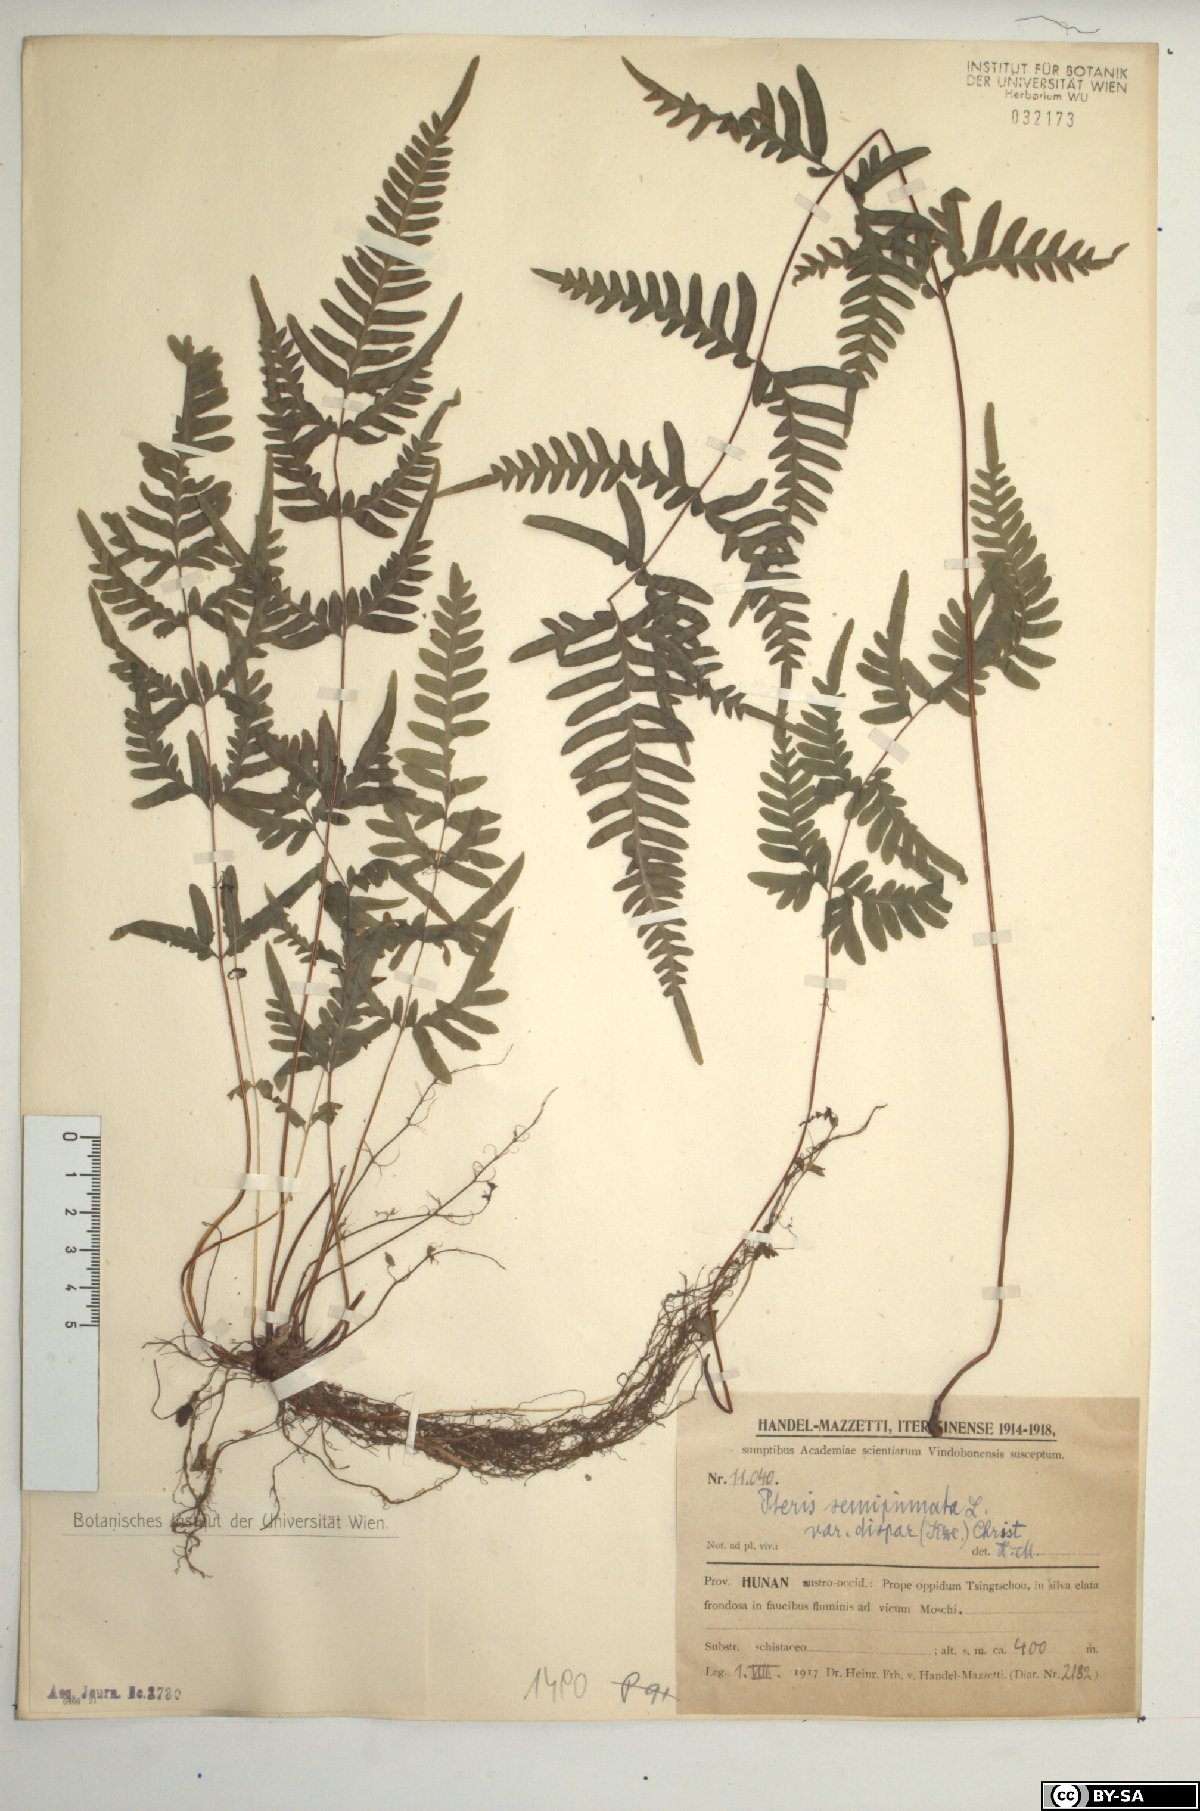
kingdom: Plantae
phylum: Tracheophyta
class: Polypodiopsida
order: Polypodiales
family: Pteridaceae
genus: Pteris
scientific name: Pteris dispar
